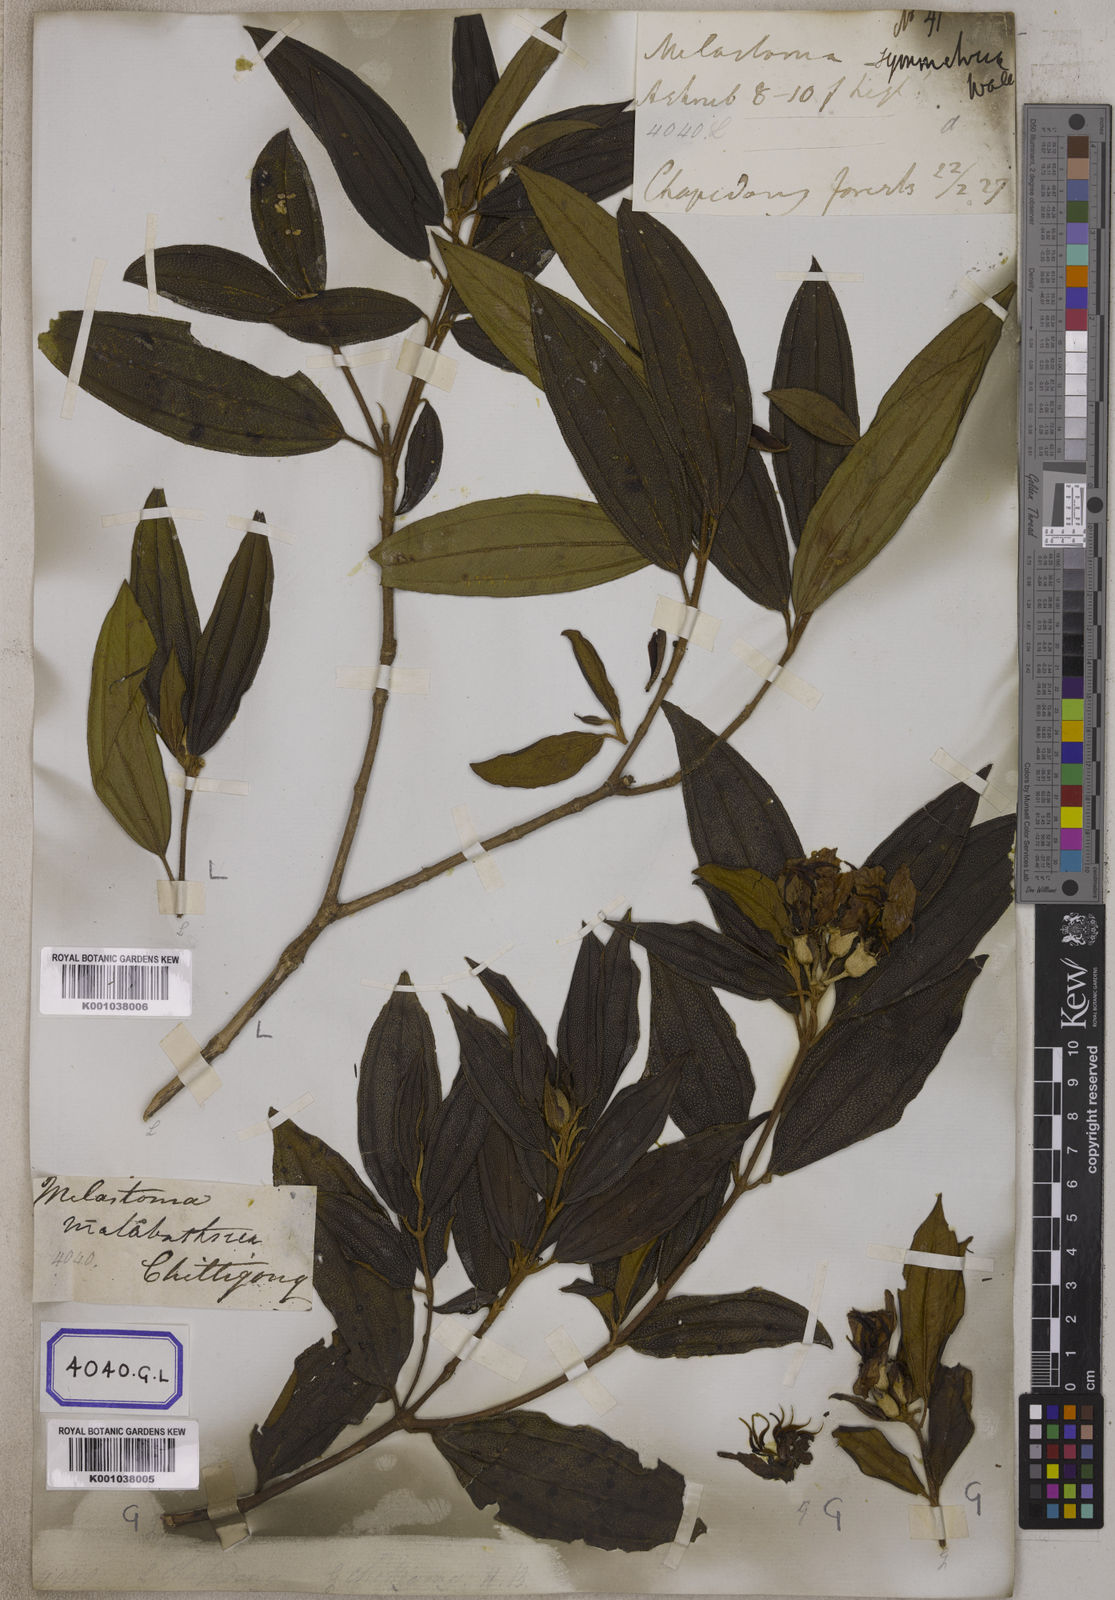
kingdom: Plantae
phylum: Tracheophyta
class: Magnoliopsida
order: Myrtales
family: Melastomataceae
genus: Melastoma
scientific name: Melastoma malabathricum
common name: Indian-rhododendron
